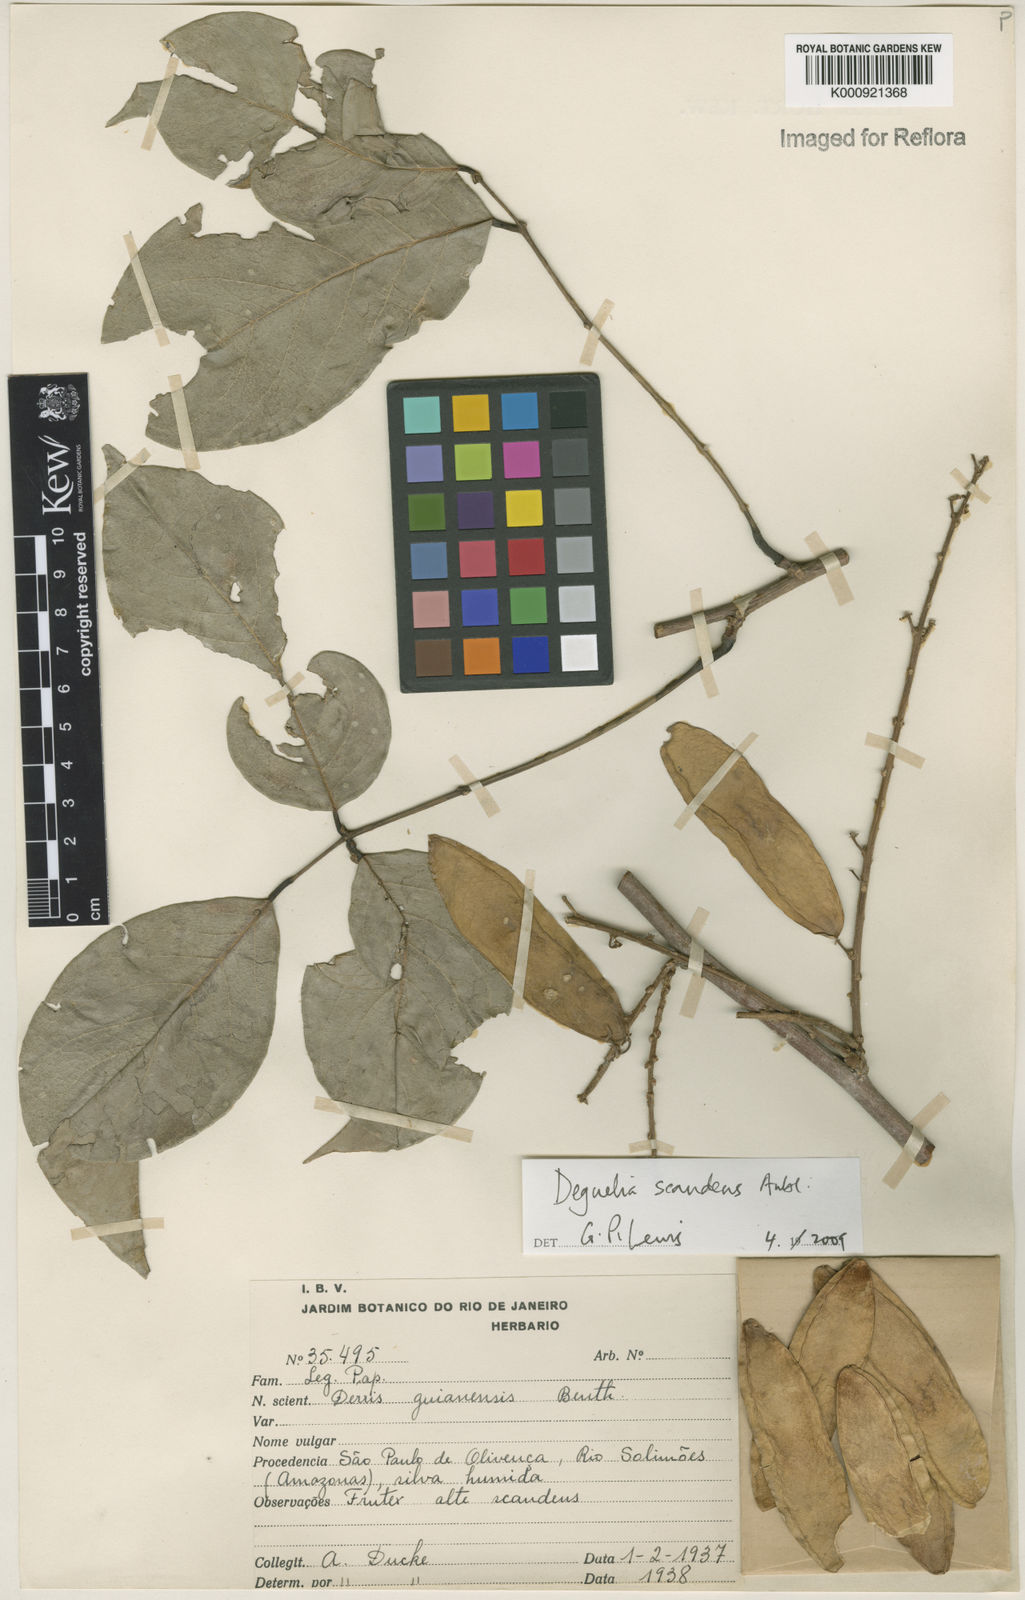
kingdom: Plantae
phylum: Tracheophyta
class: Magnoliopsida
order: Fabales
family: Fabaceae
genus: Deguelia
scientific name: Deguelia scandens
